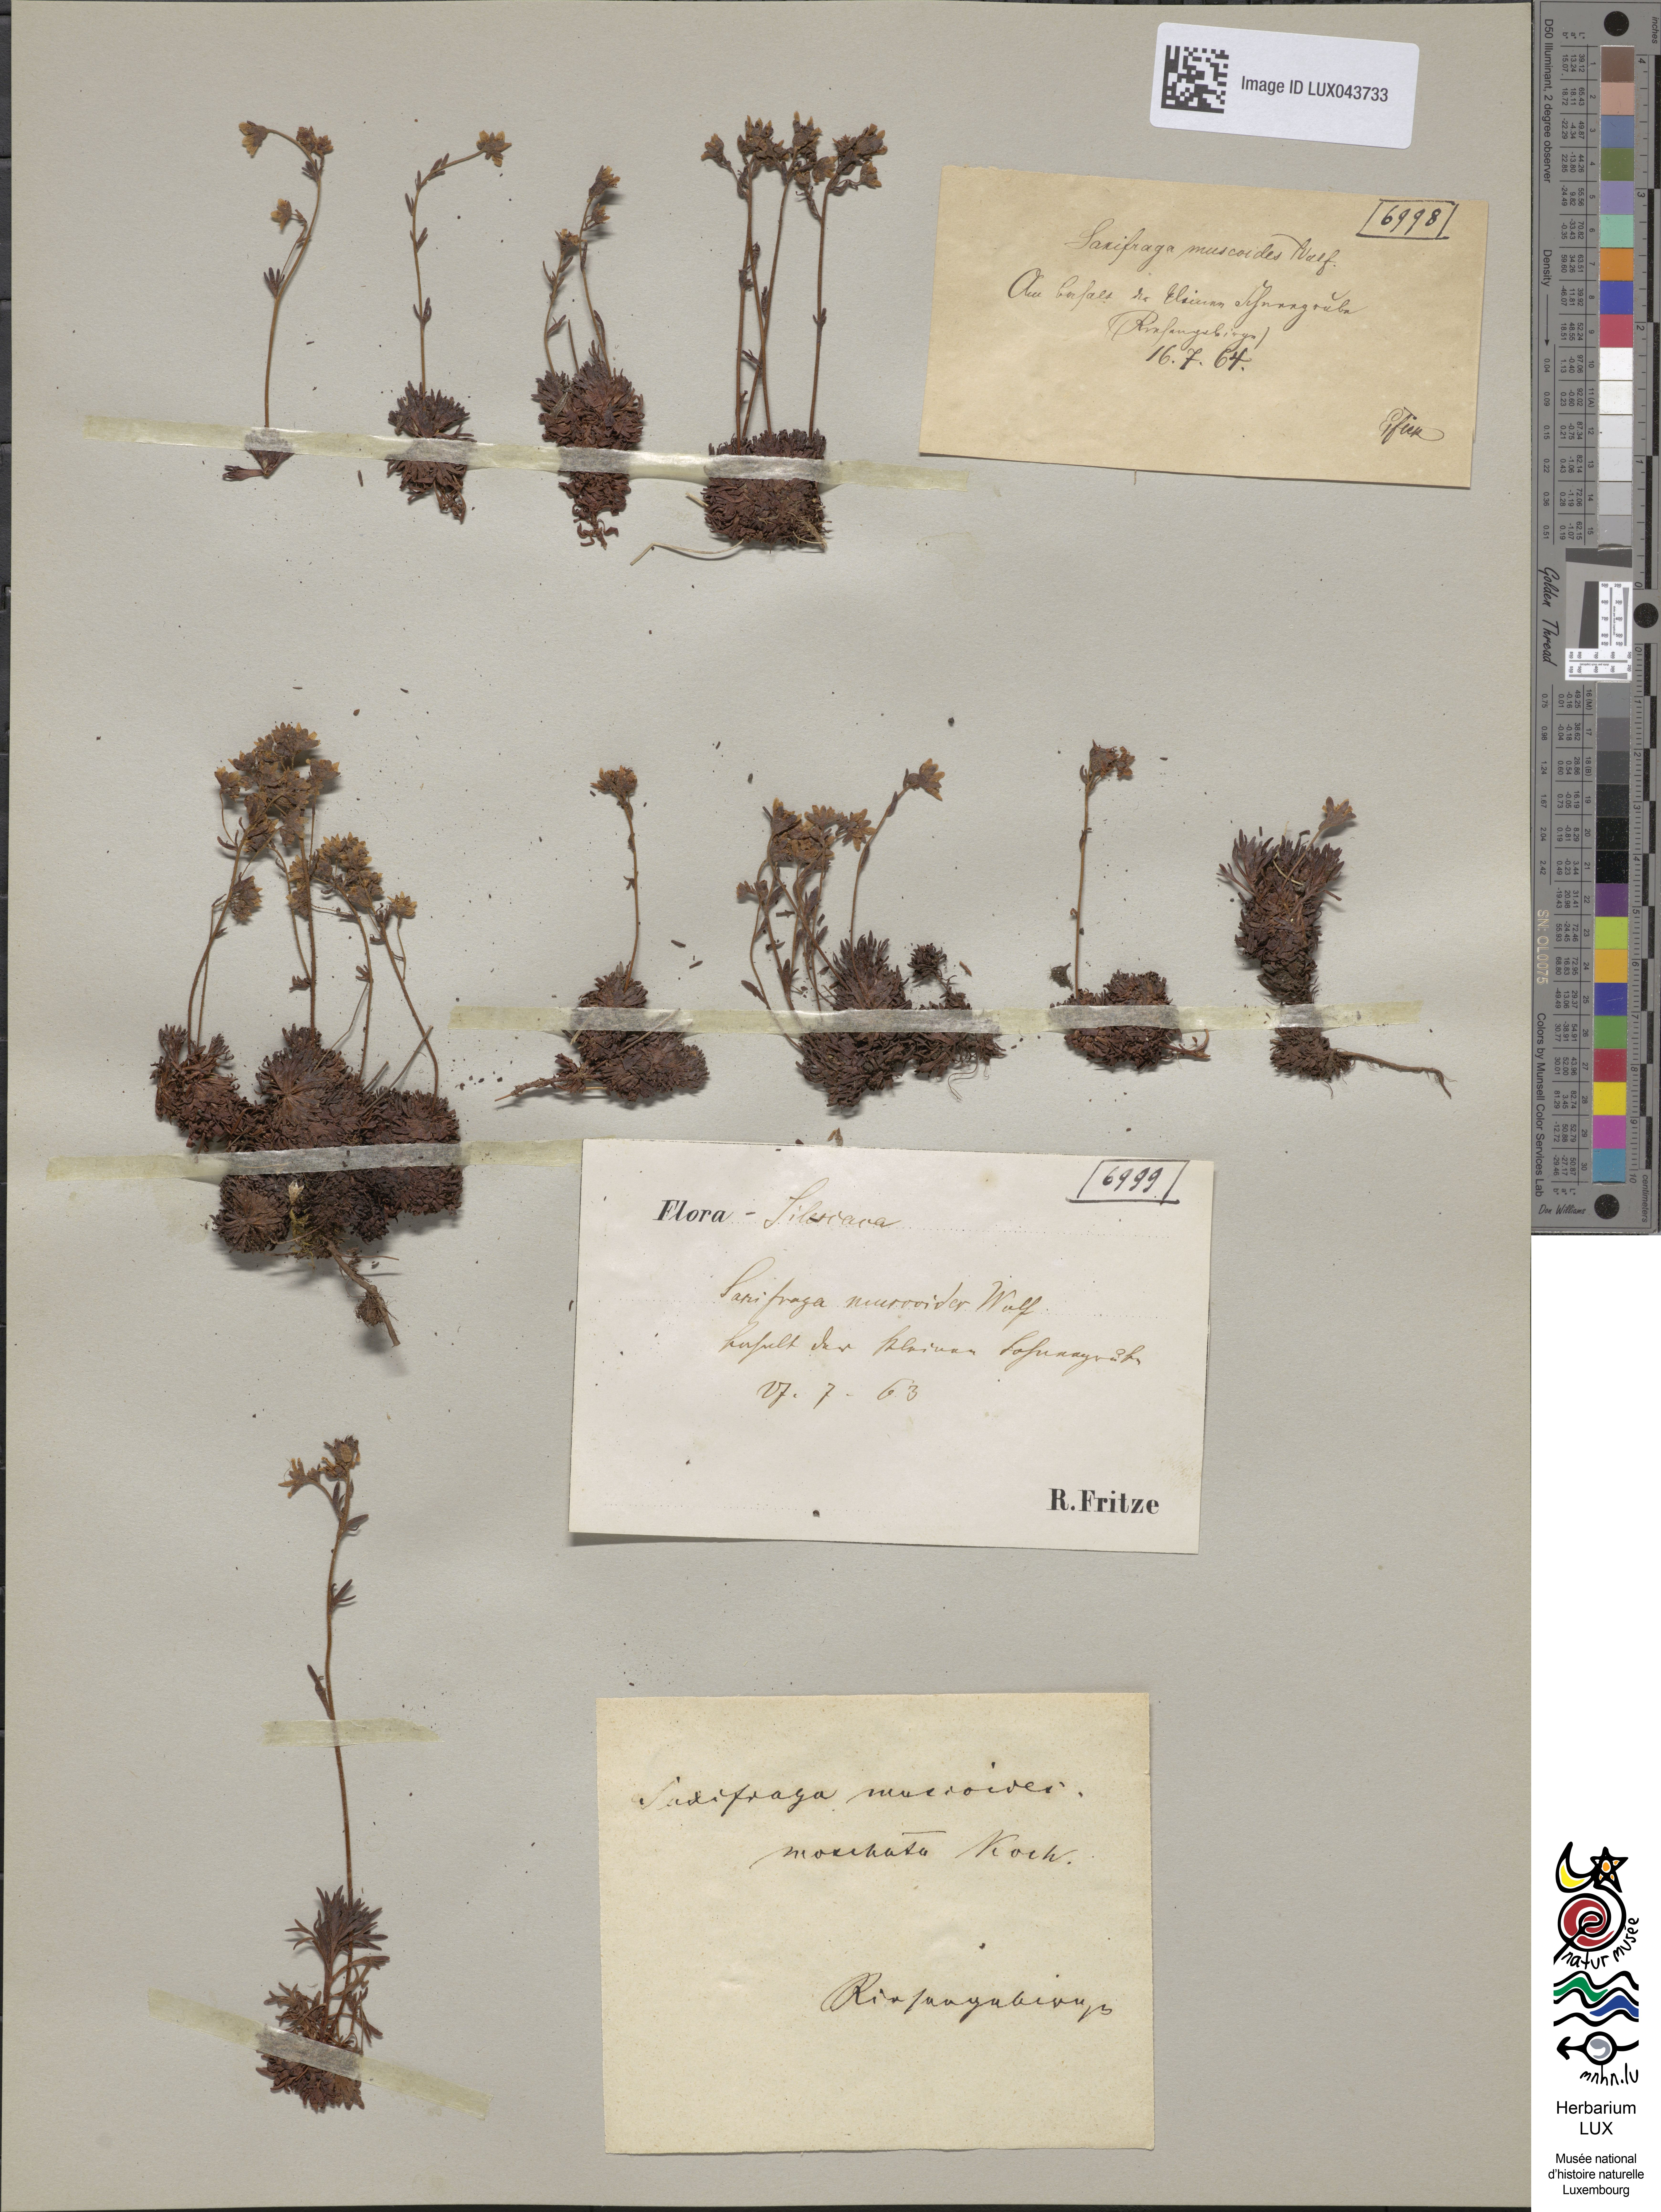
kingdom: Plantae
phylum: Tracheophyta
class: Magnoliopsida
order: Saxifragales
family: Saxifragaceae
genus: Saxifraga
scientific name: Saxifraga moschata
